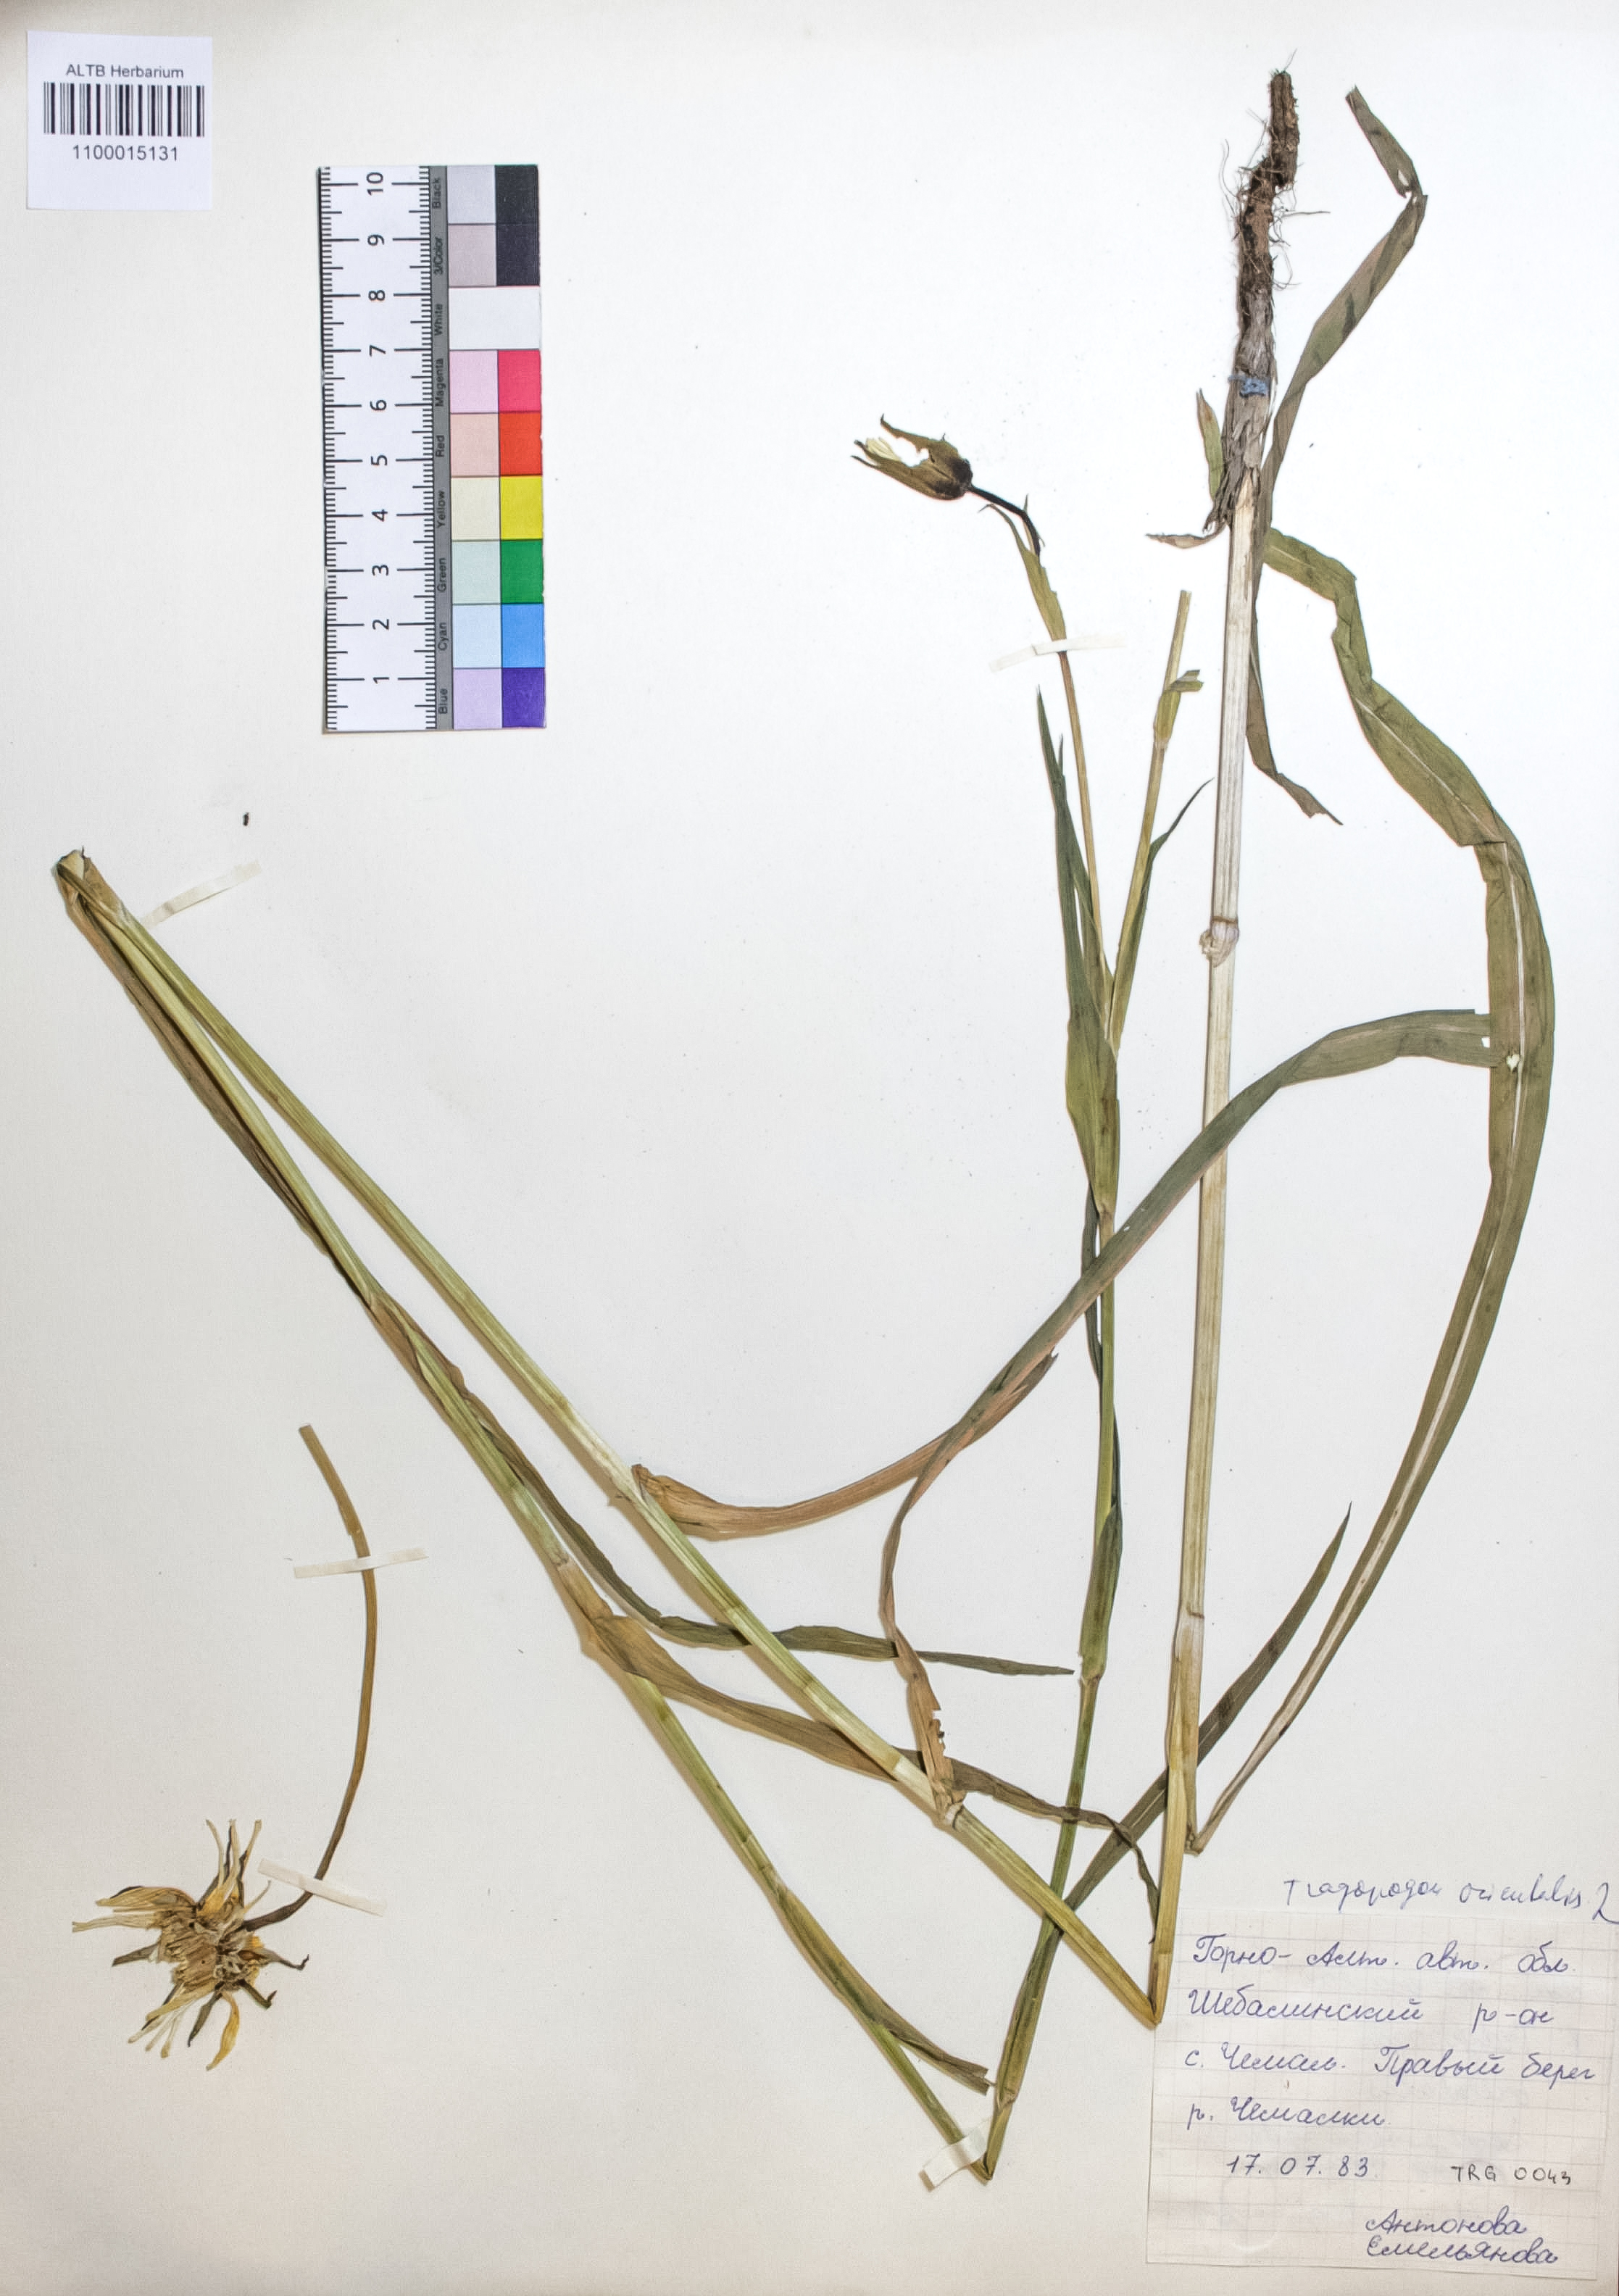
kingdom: Plantae
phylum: Tracheophyta
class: Magnoliopsida
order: Asterales
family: Asteraceae
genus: Tragopogon
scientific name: Tragopogon orientalis
